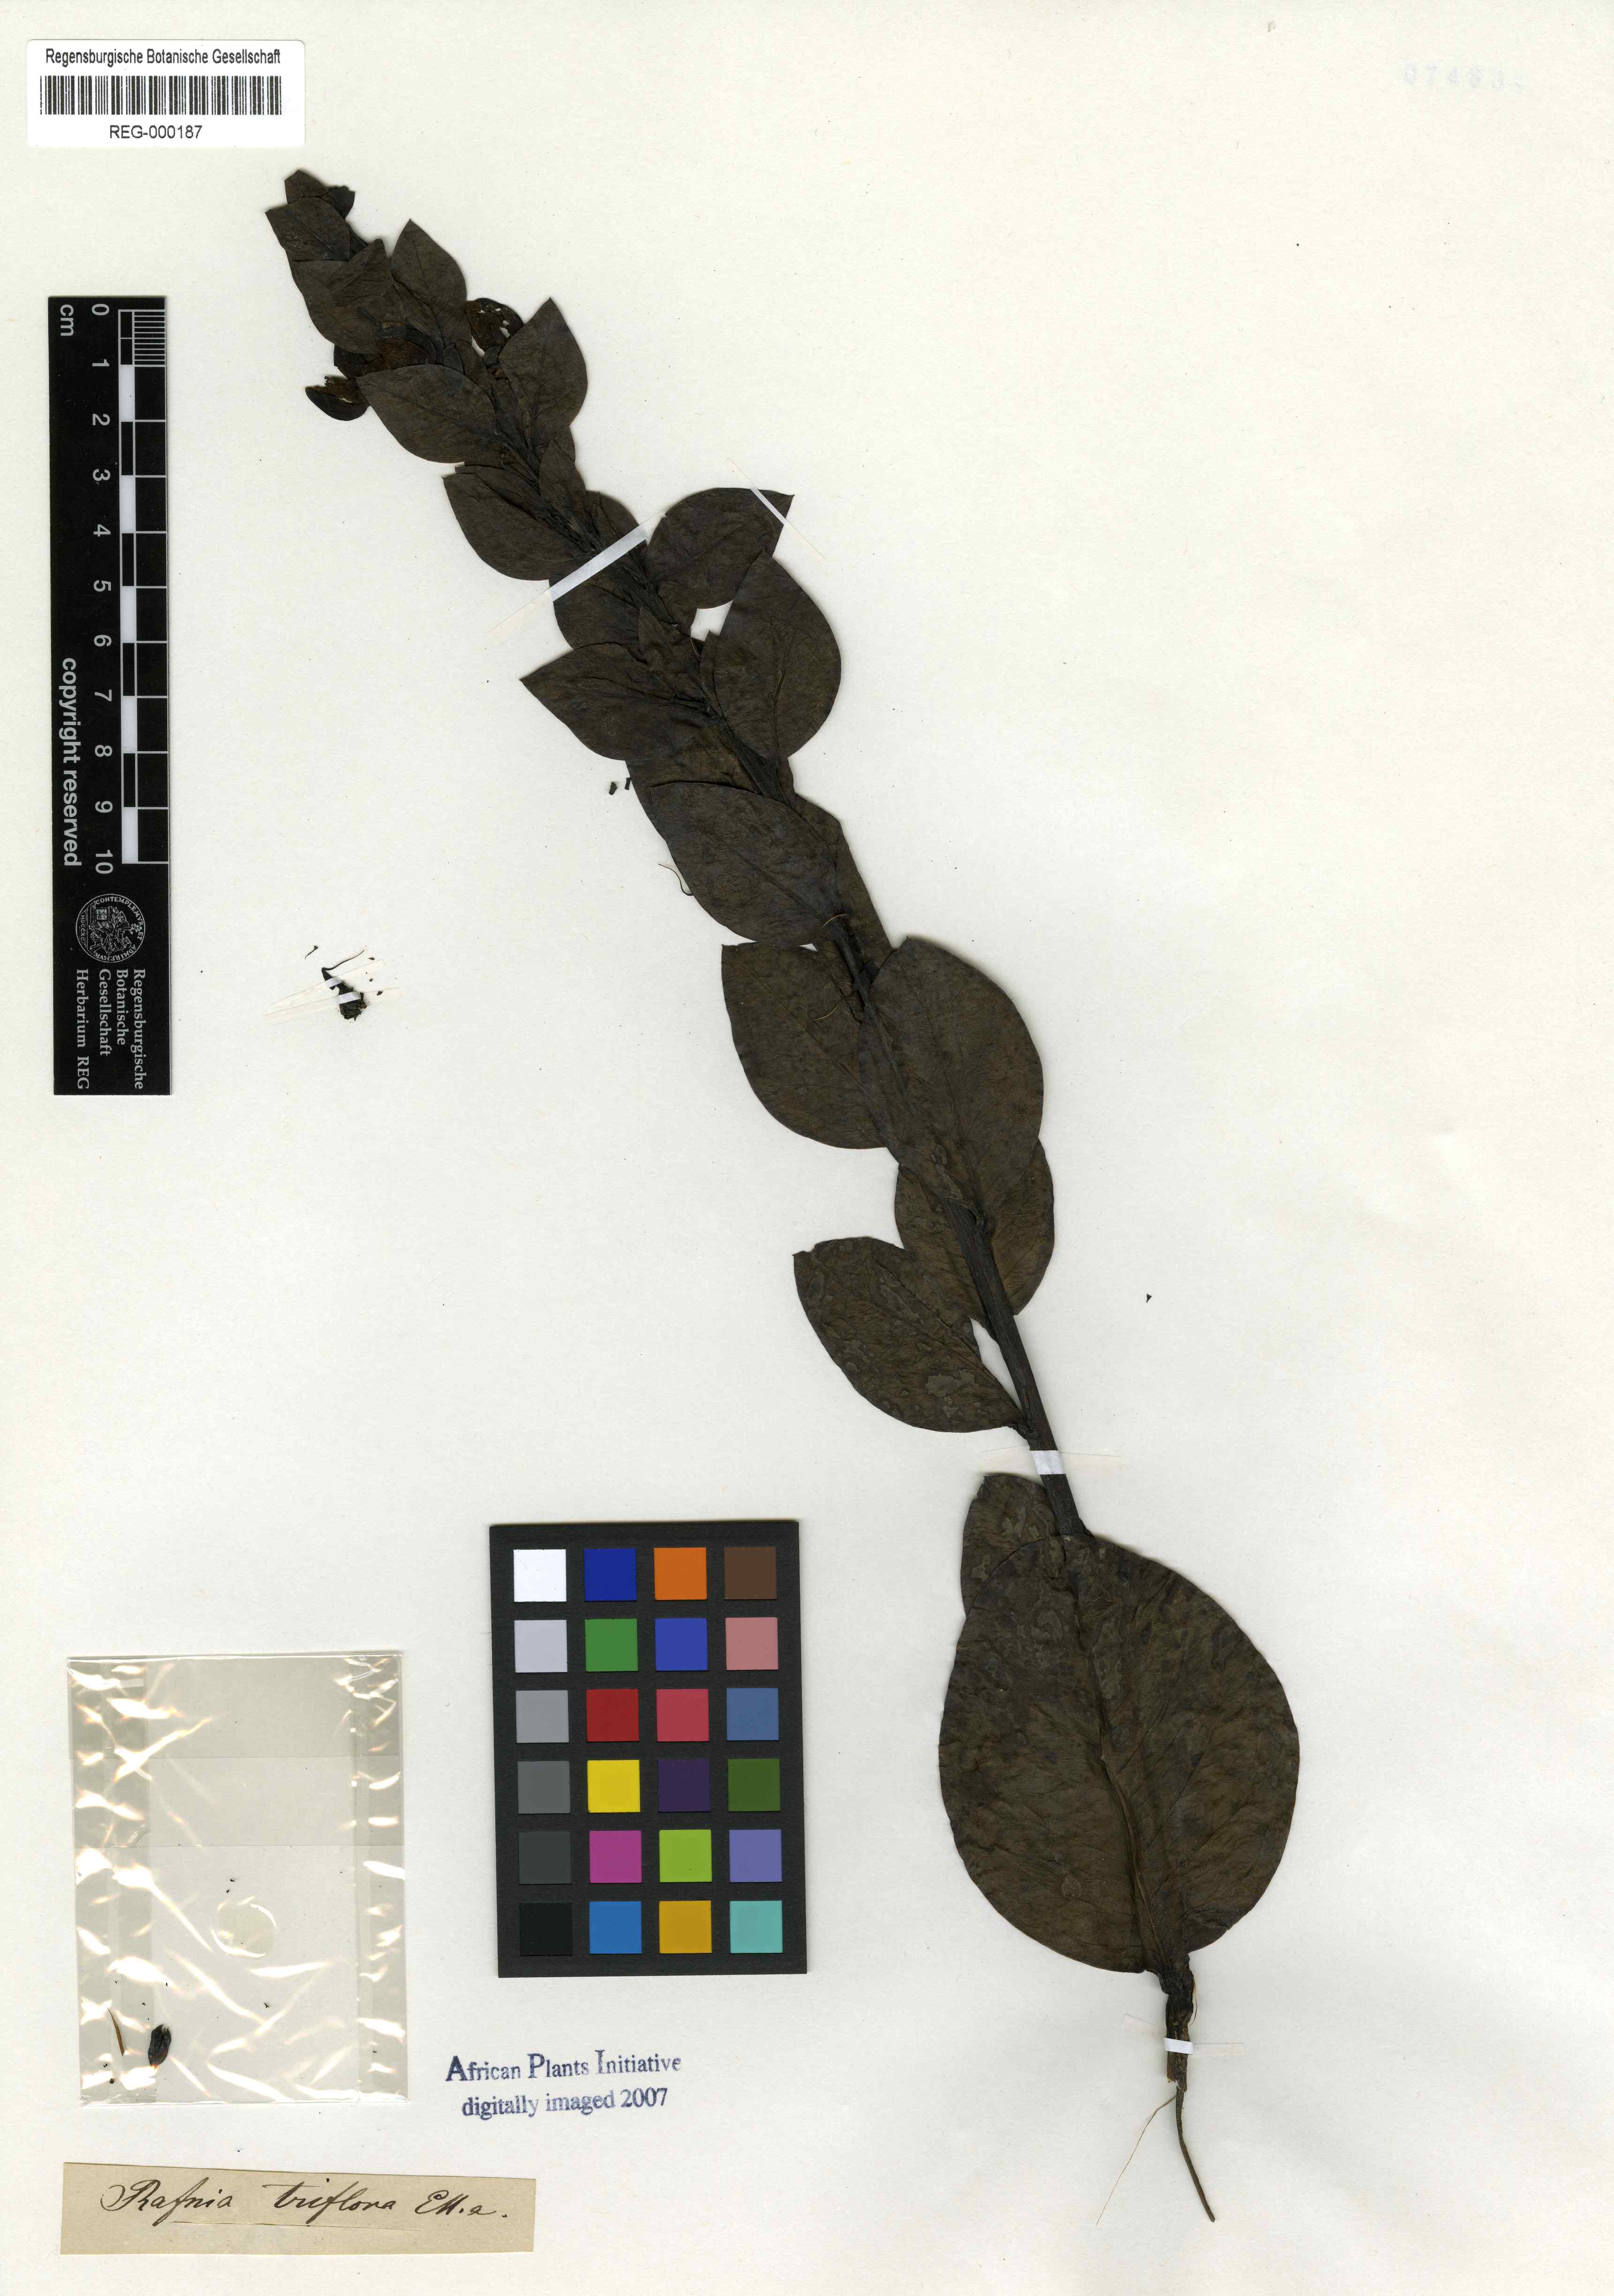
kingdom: Plantae
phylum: Tracheophyta
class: Magnoliopsida
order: Fabales
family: Fabaceae
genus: Rafnia
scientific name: Rafnia triflora
